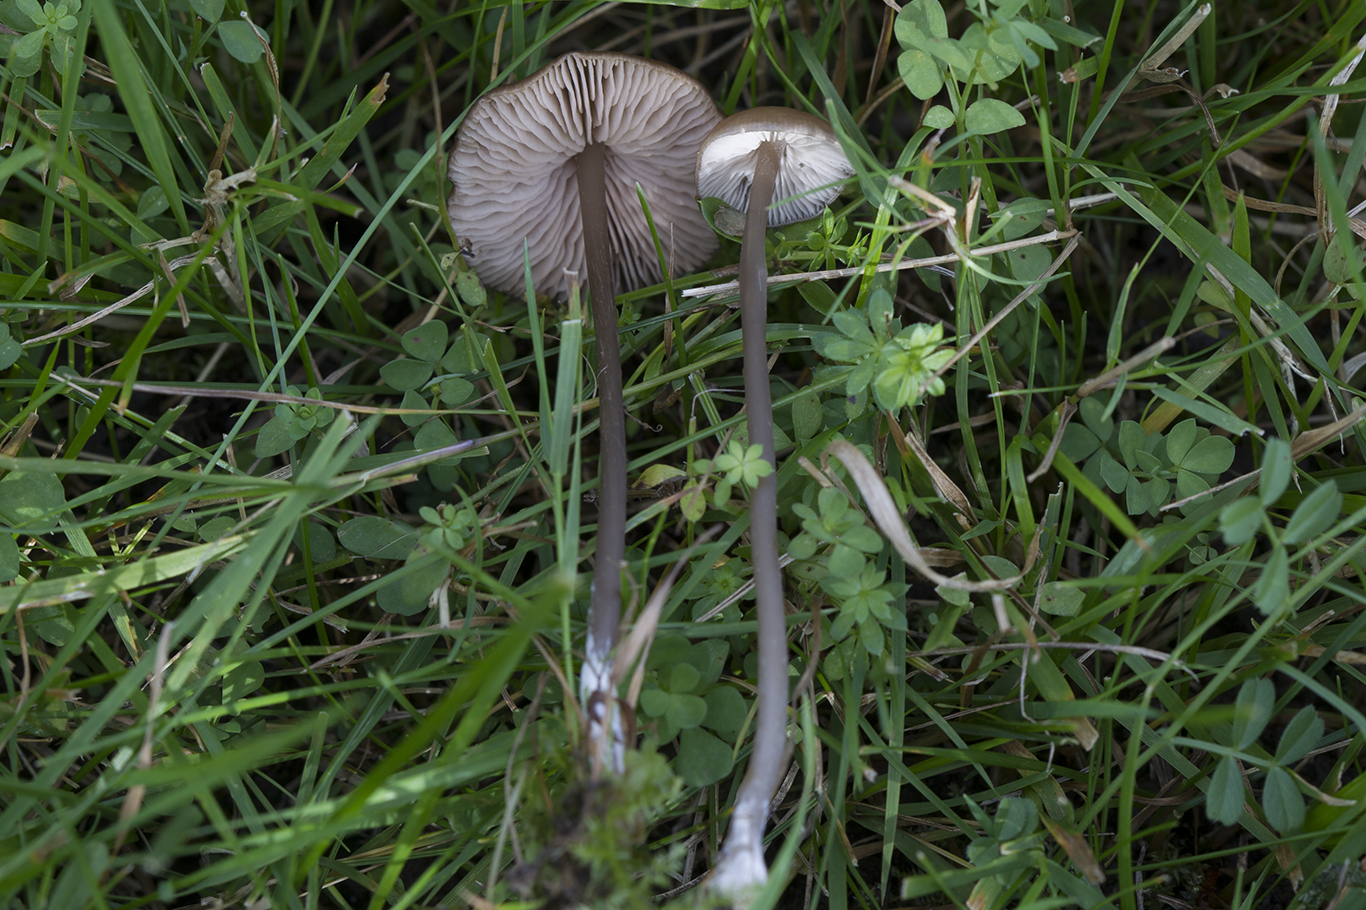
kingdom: Fungi
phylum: Basidiomycota
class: Agaricomycetes
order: Agaricales
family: Entolomataceae
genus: Entoloma
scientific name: Entoloma infula
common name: hvidbladet rødblad
